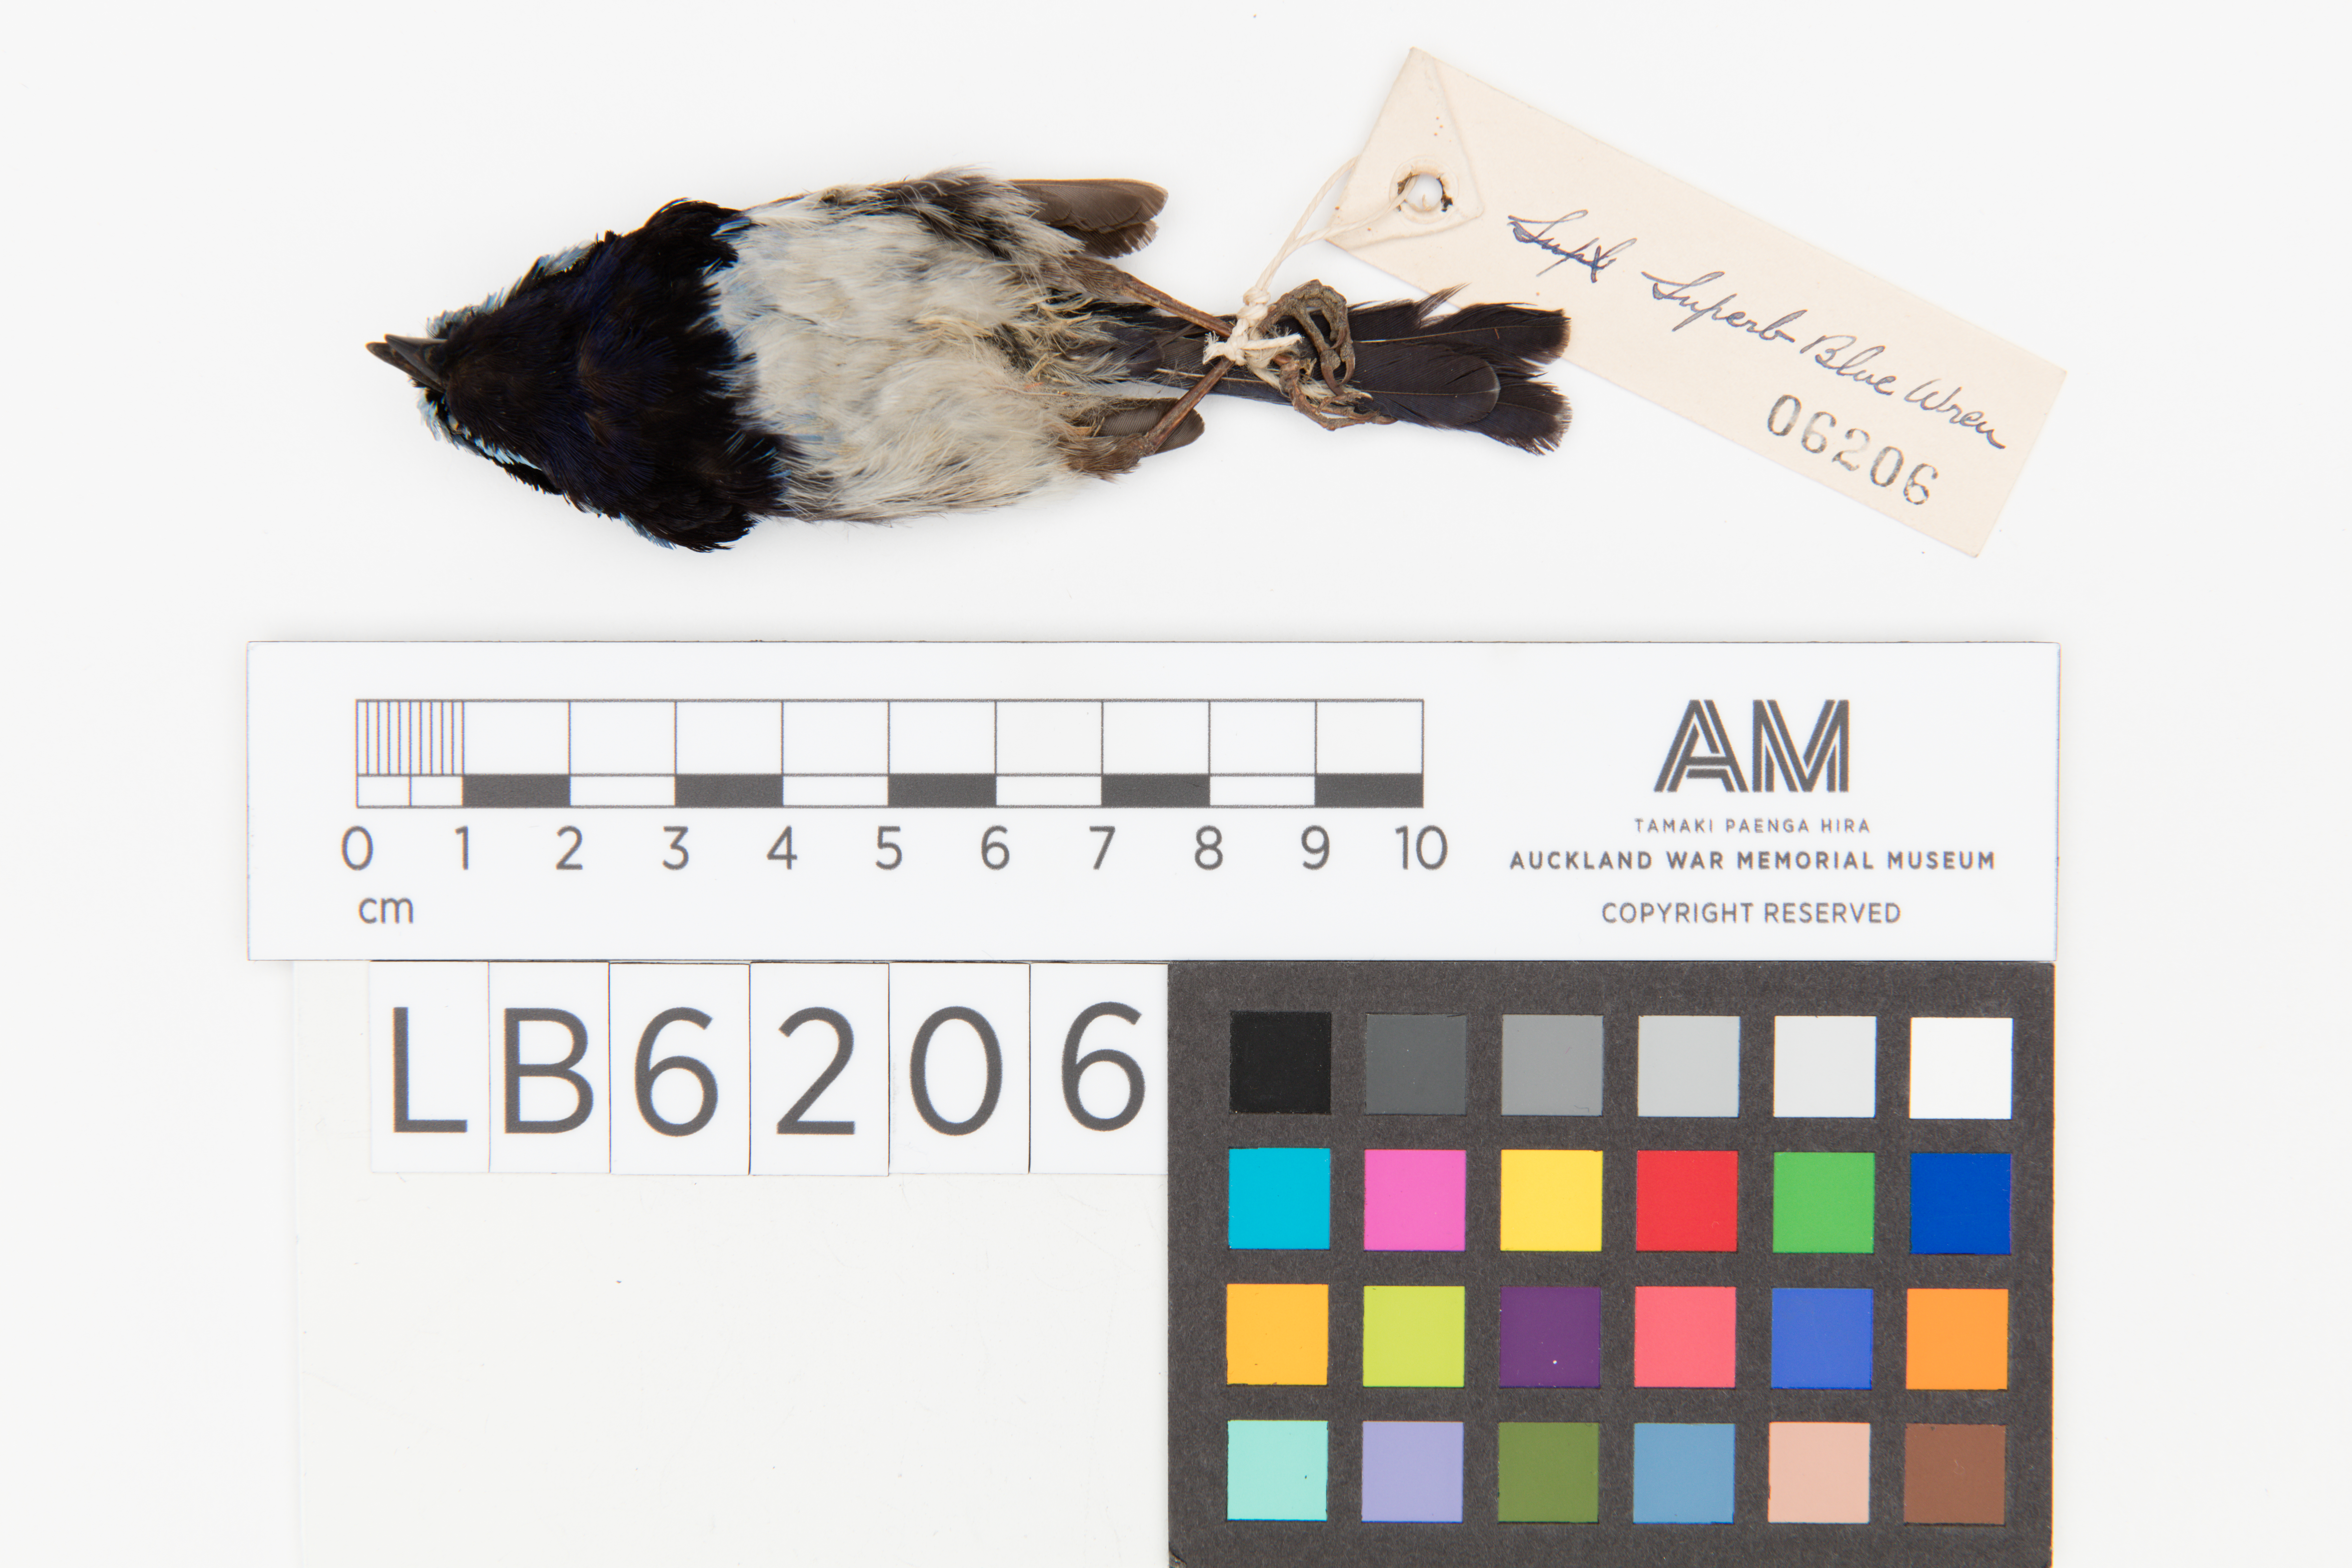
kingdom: Animalia
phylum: Chordata
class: Aves
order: Passeriformes
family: Maluridae
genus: Malurus
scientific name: Malurus cyaneus
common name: Superb fairywren
